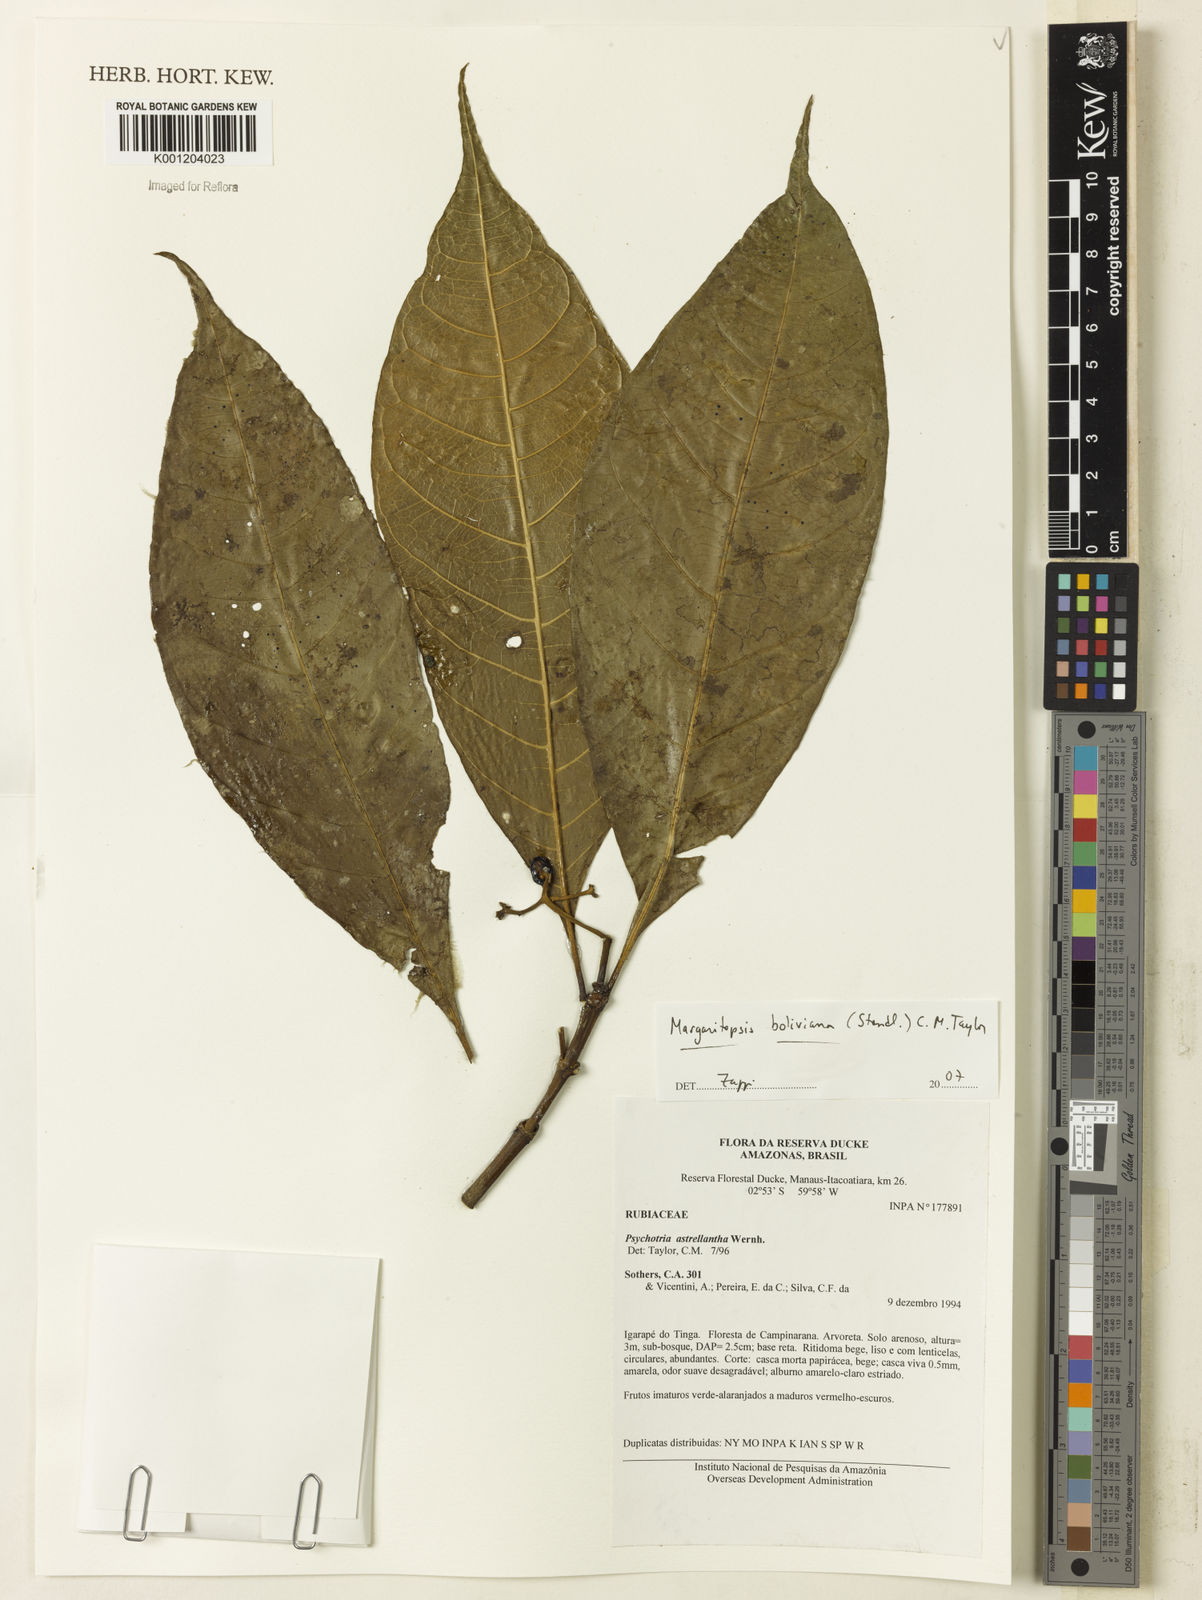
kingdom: Plantae
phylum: Tracheophyta
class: Magnoliopsida
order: Gentianales
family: Rubiaceae
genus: Eumachia
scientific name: Eumachia boliviana
